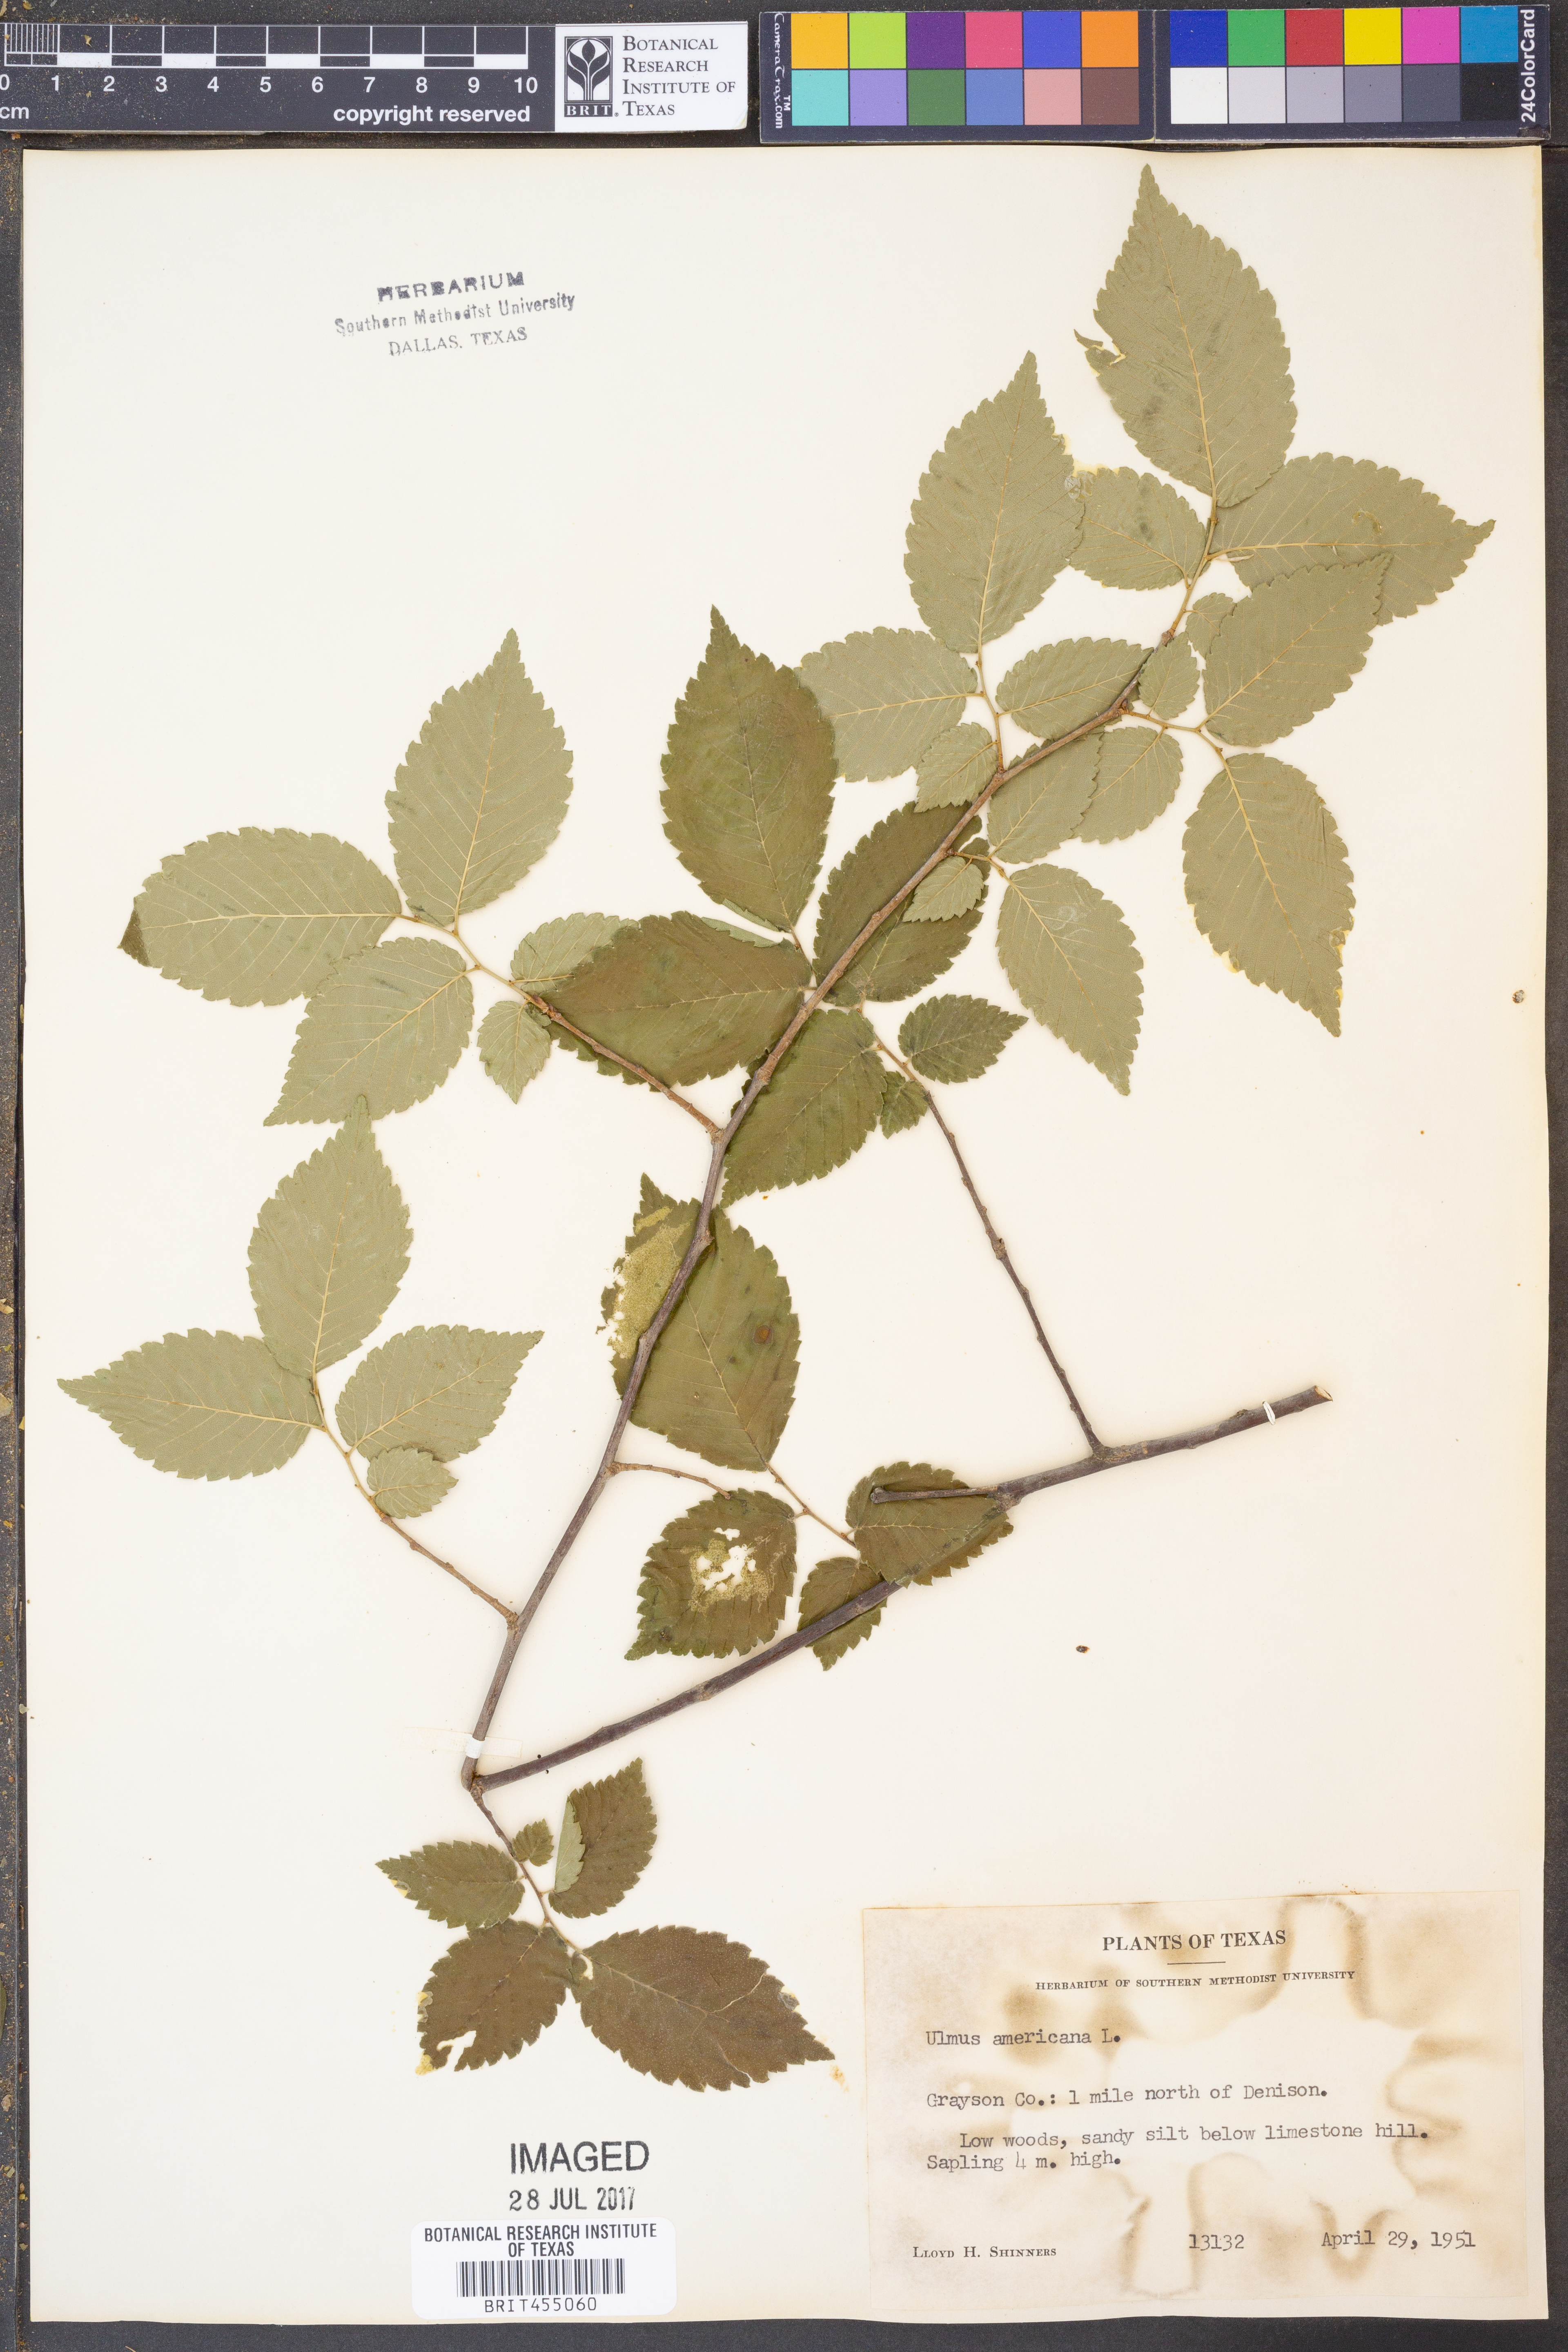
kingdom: Plantae
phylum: Tracheophyta
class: Magnoliopsida
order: Rosales
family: Ulmaceae
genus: Ulmus
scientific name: Ulmus americana
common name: American elm
